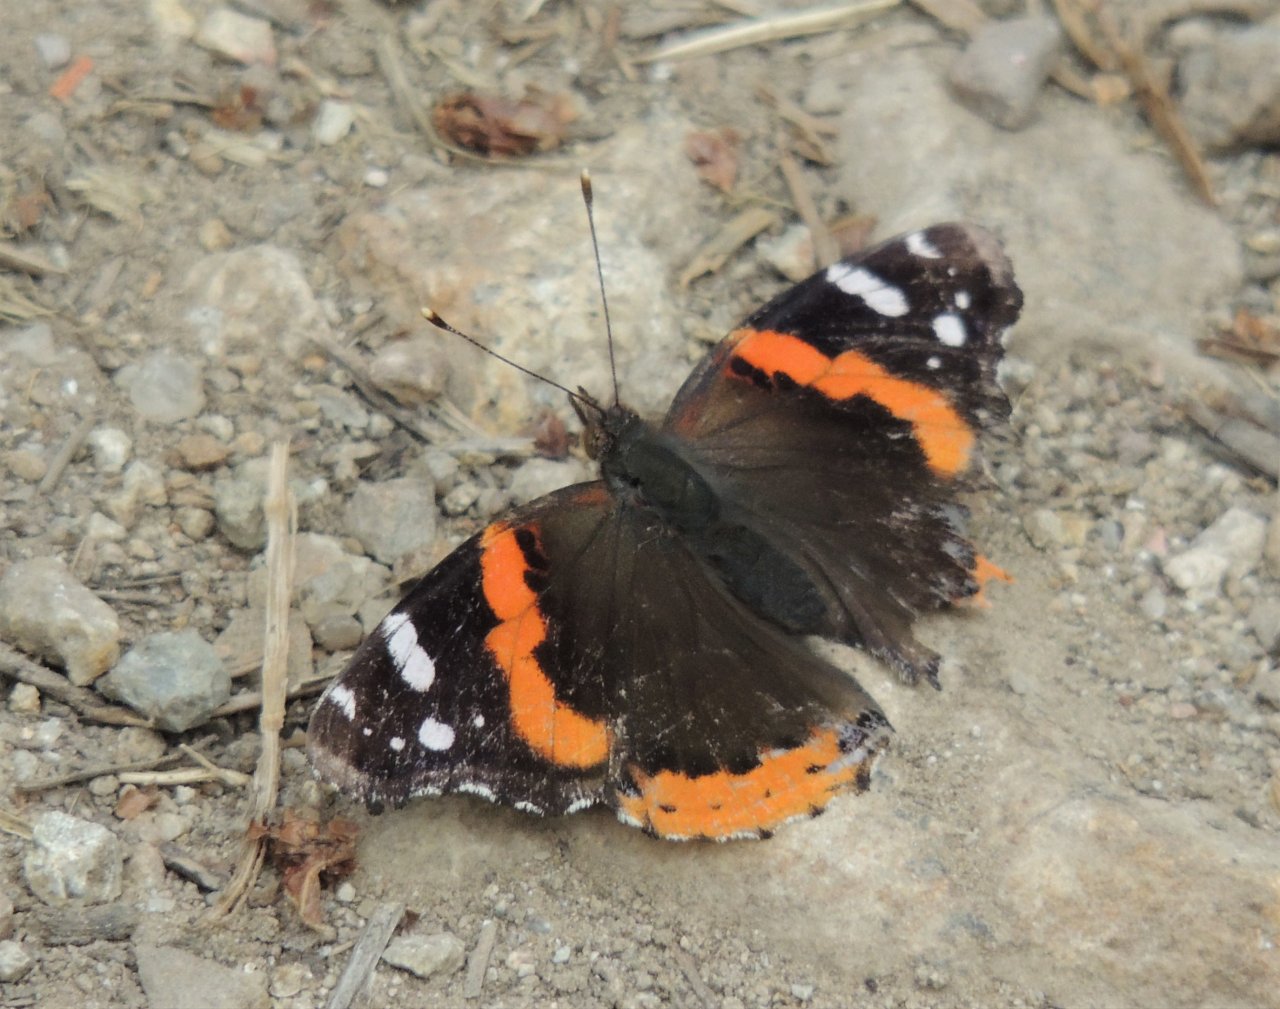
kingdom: Animalia
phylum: Arthropoda
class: Insecta
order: Lepidoptera
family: Nymphalidae
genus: Vanessa
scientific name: Vanessa atalanta
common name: Red Admiral
